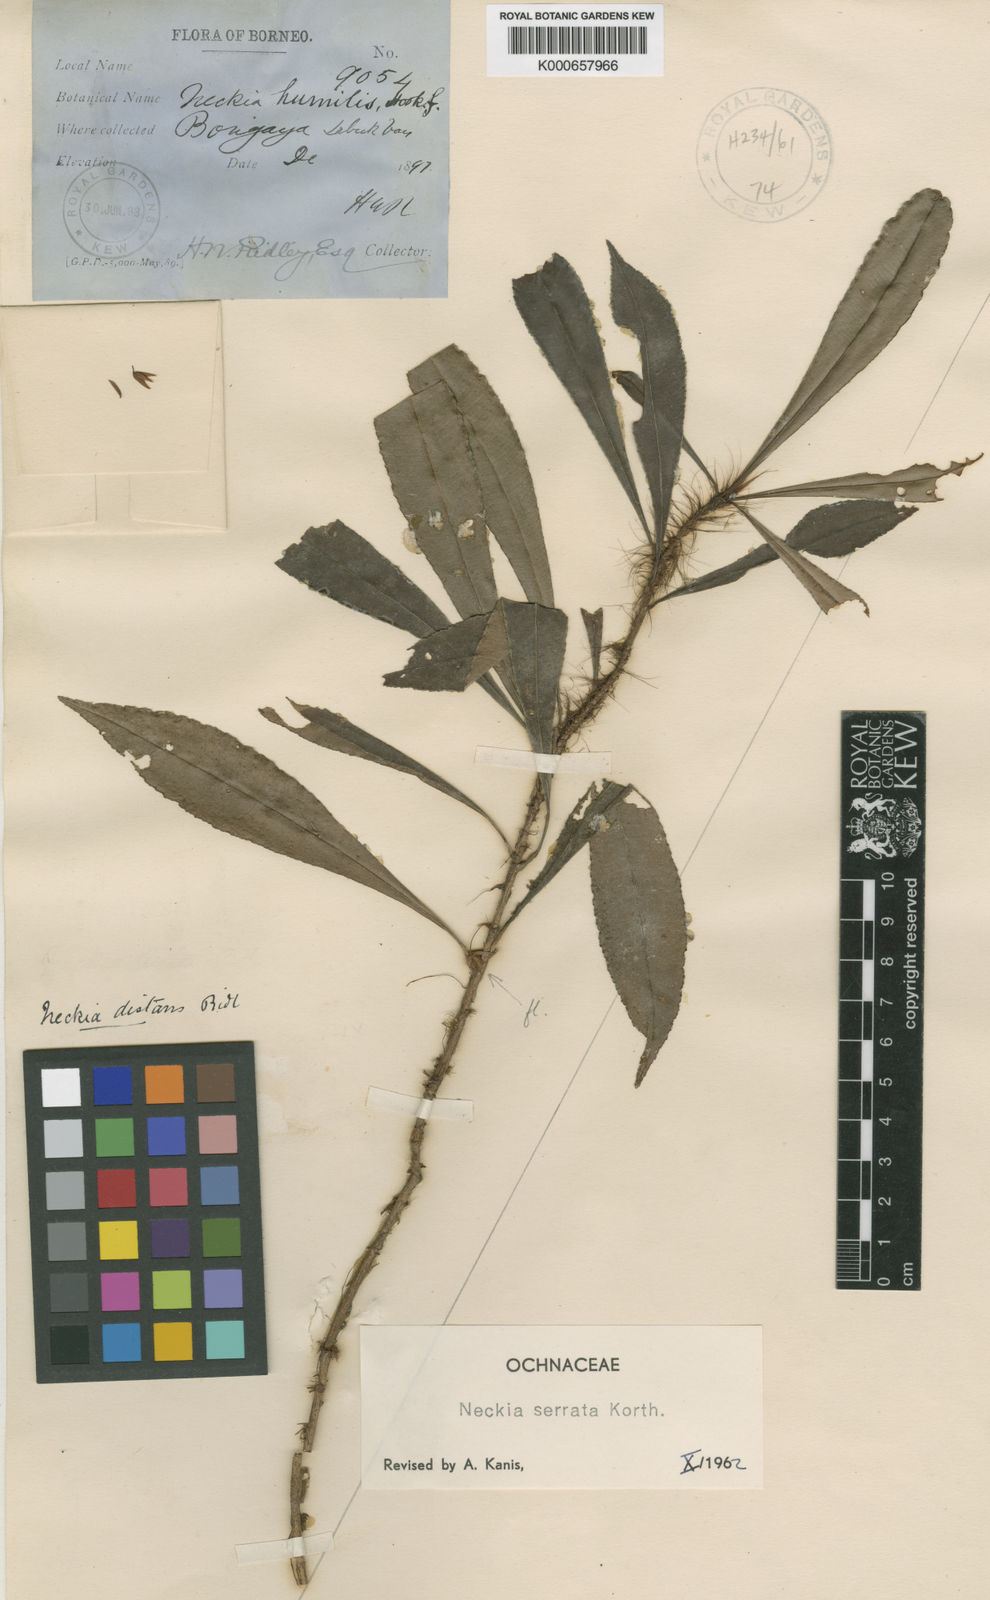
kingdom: Plantae
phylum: Tracheophyta
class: Magnoliopsida
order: Malpighiales
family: Ochnaceae
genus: Neckia
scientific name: Neckia serrata
